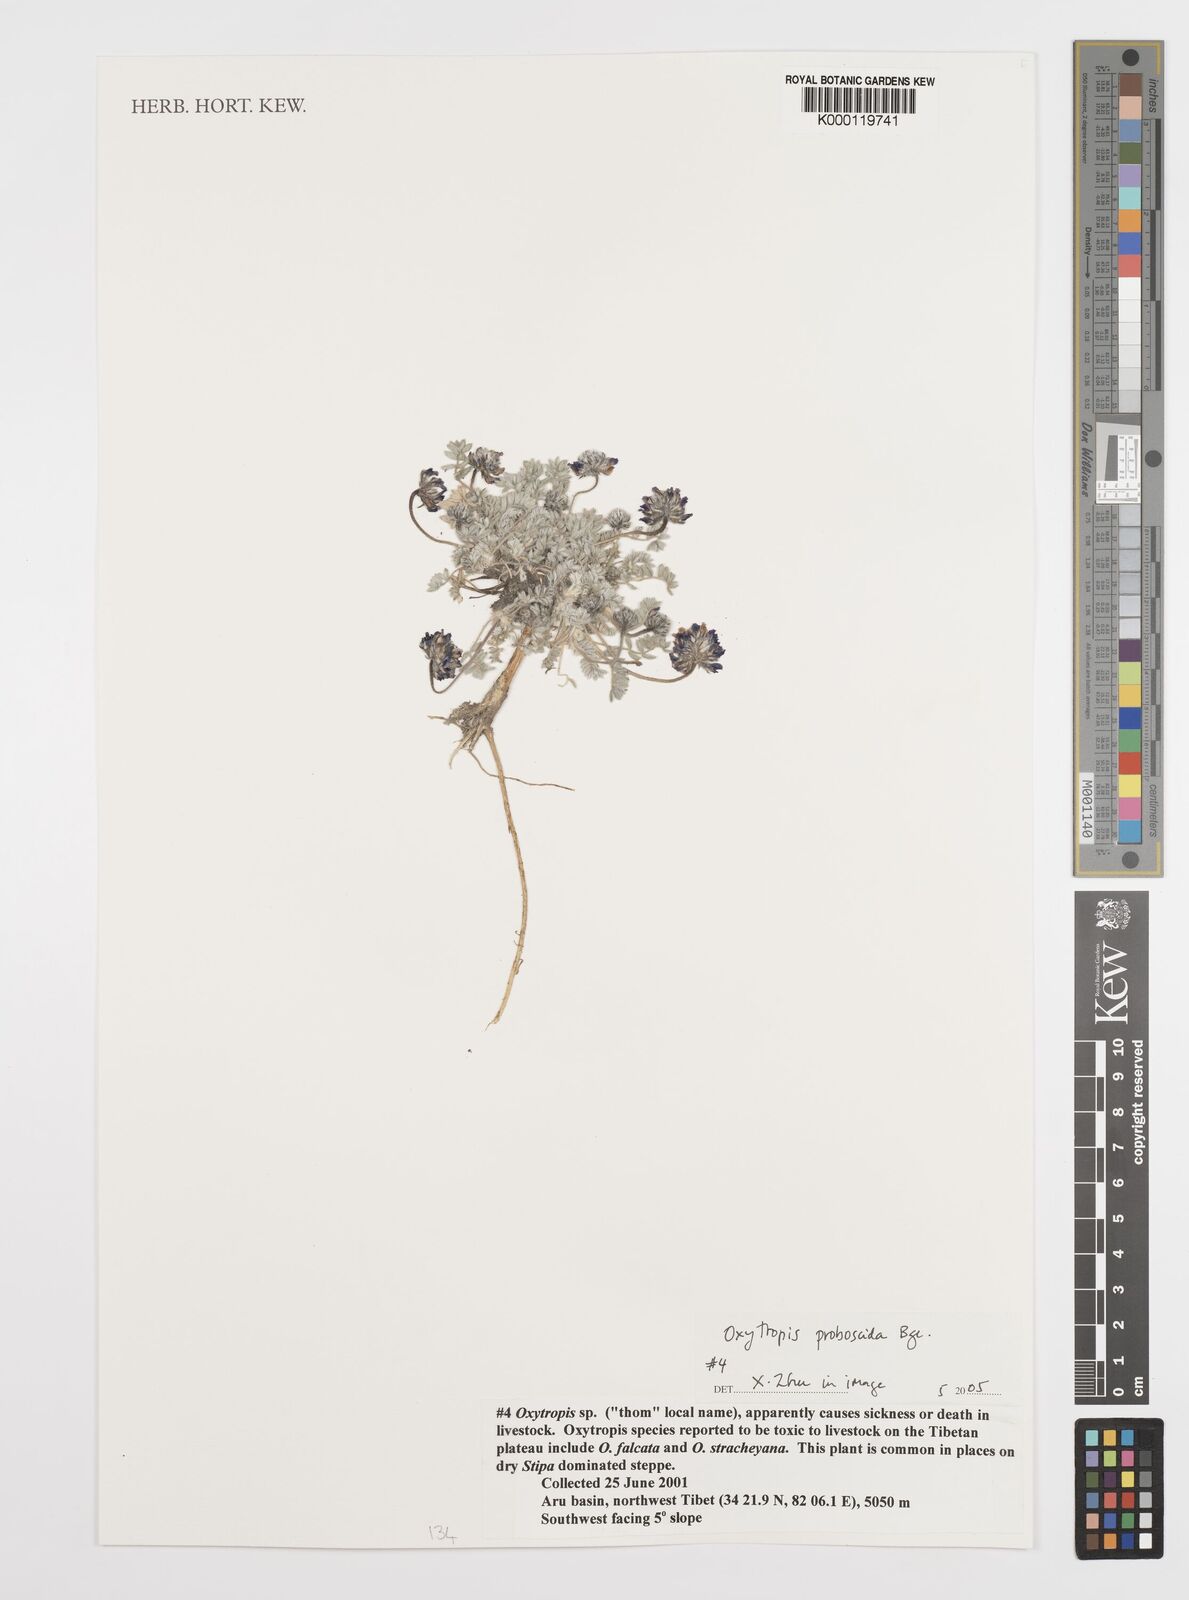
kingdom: Plantae
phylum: Tracheophyta
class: Magnoliopsida
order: Fabales
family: Fabaceae
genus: Oxytropis
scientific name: Oxytropis
